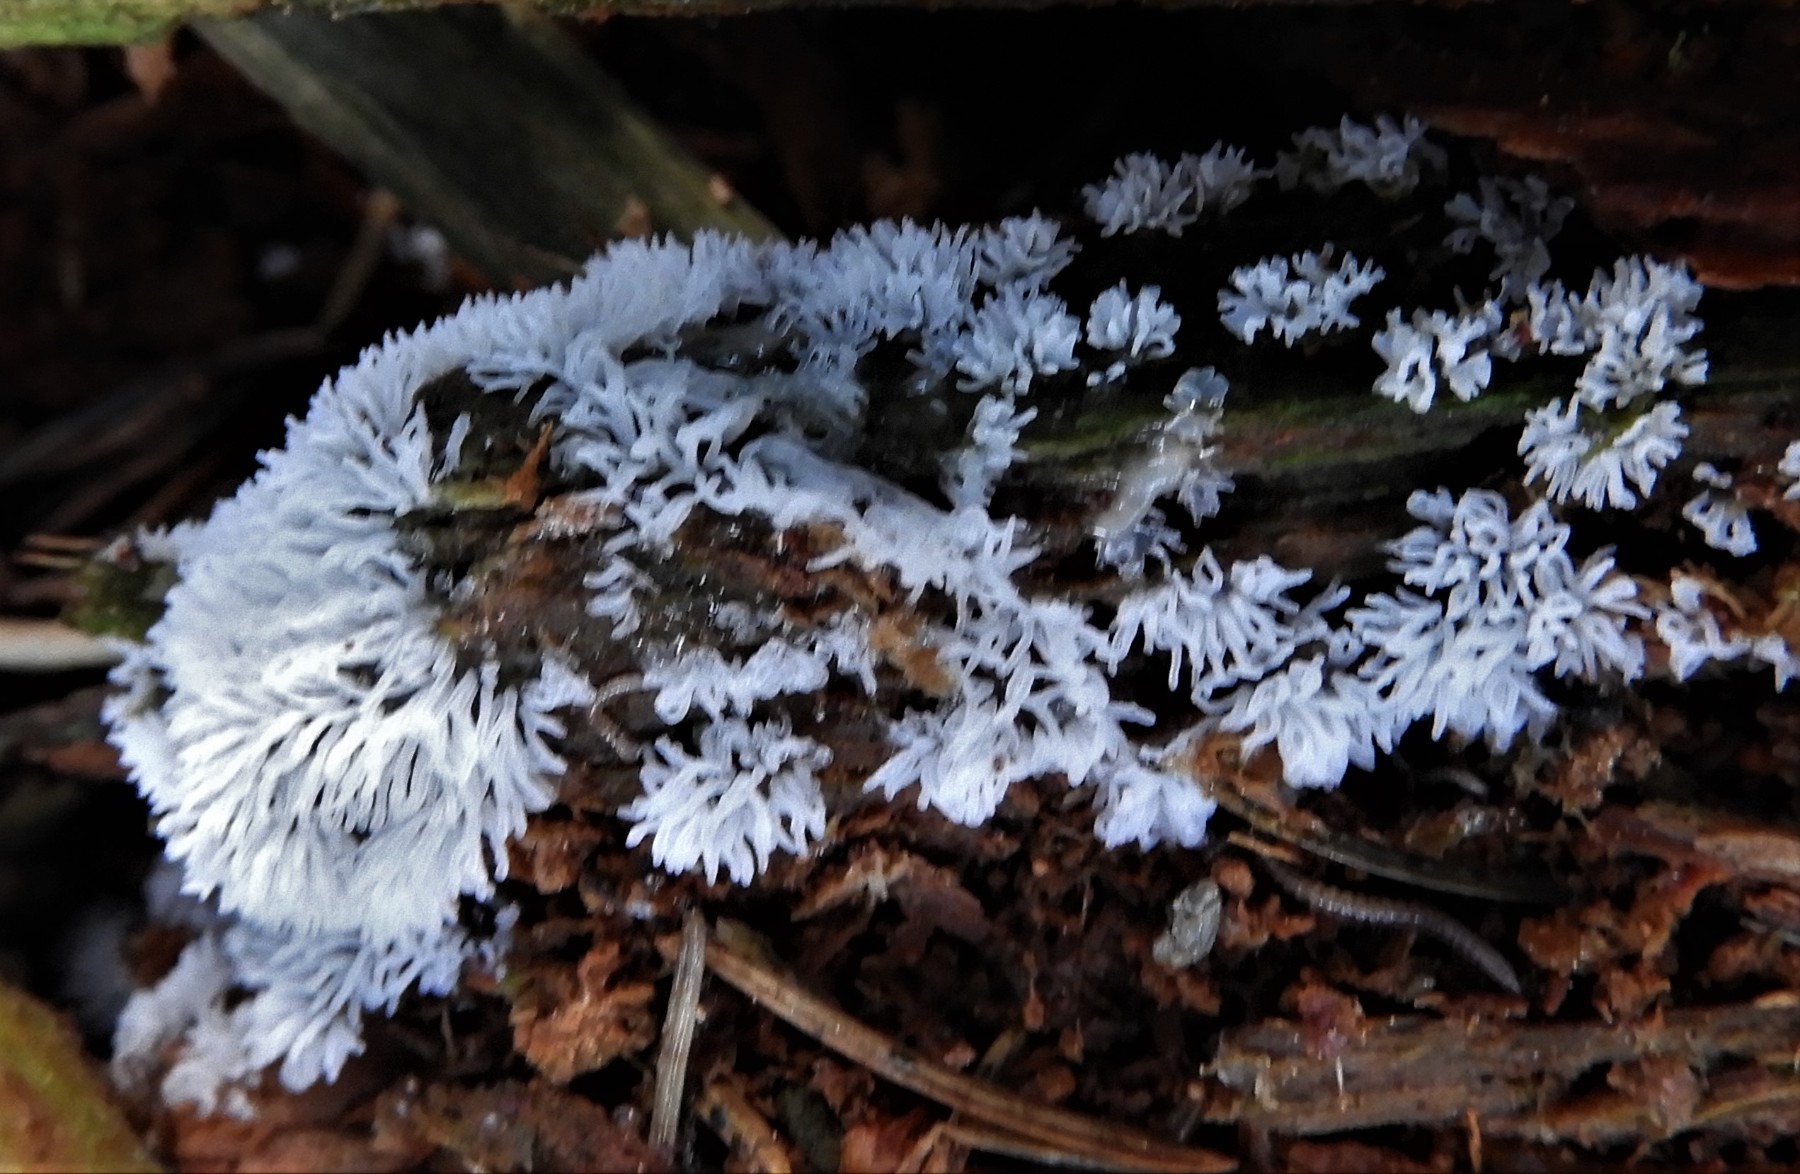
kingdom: Protozoa
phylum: Mycetozoa
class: Protosteliomycetes
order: Ceratiomyxales
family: Ceratiomyxaceae
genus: Ceratiomyxa
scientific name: Ceratiomyxa fruticulosa
